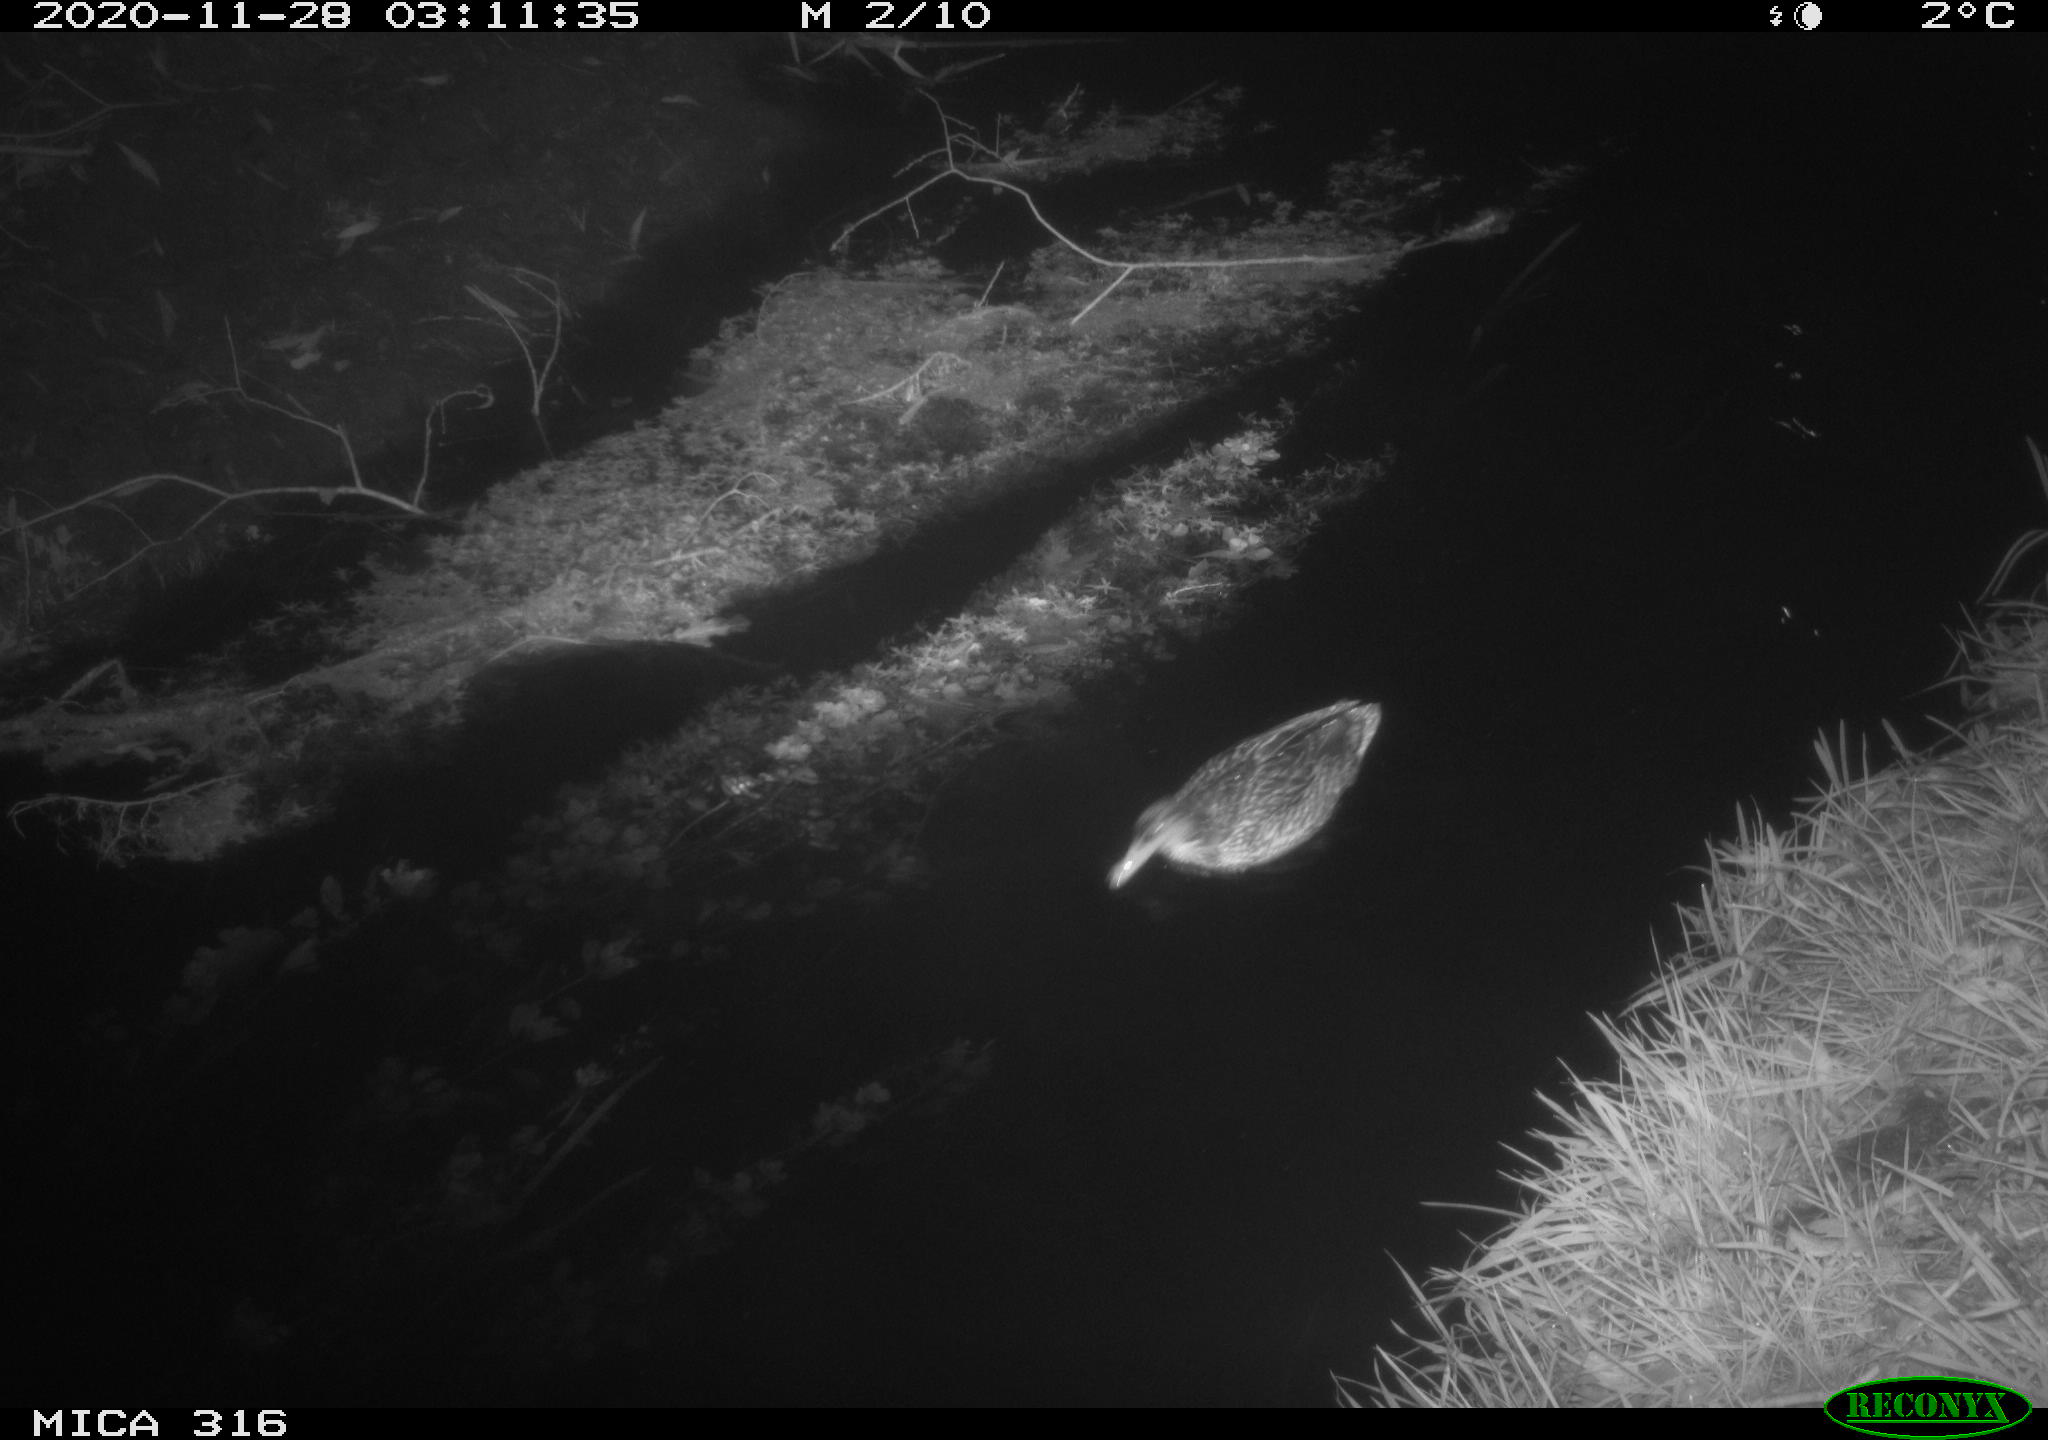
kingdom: Animalia
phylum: Chordata
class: Aves
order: Anseriformes
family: Anatidae
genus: Anas
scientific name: Anas platyrhynchos
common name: Mallard
